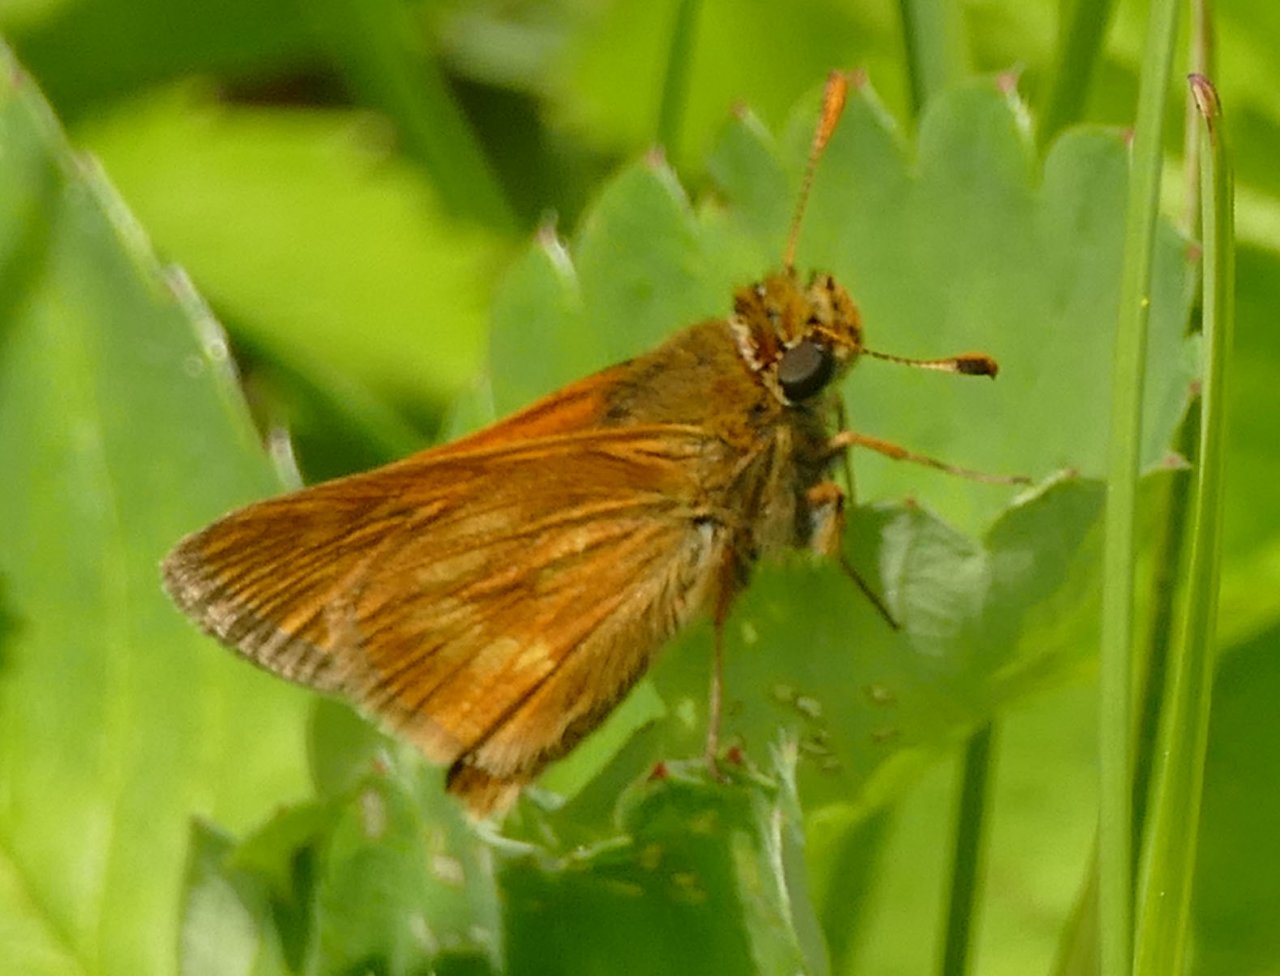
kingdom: Animalia
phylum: Arthropoda
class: Insecta
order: Lepidoptera
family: Hesperiidae
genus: Polites
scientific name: Polites
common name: Long Dash Skipper
